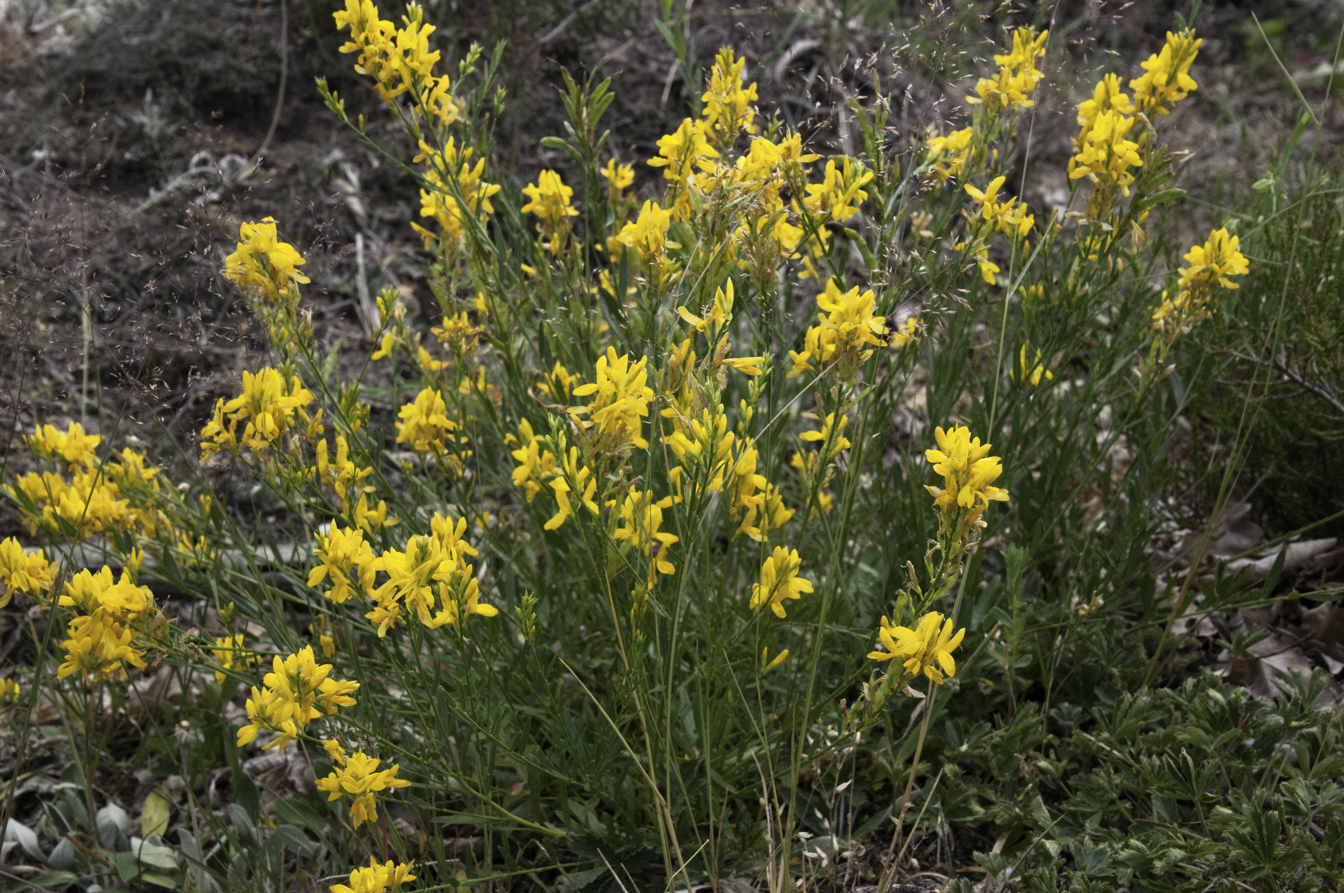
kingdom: Plantae
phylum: Tracheophyta
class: Magnoliopsida
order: Fabales
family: Fabaceae
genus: Genista
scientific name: Genista tinctoria
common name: Dyer's greenweed
